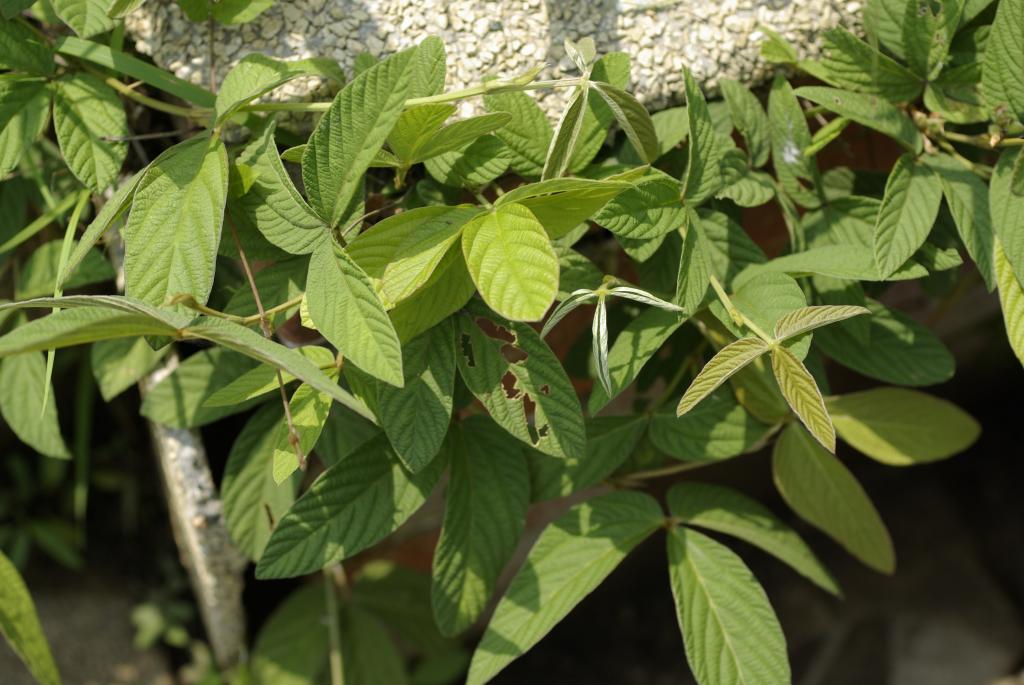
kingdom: Plantae
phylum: Tracheophyta
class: Magnoliopsida
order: Fabales
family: Fabaceae
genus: Flemingia
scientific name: Flemingia macrophylla
